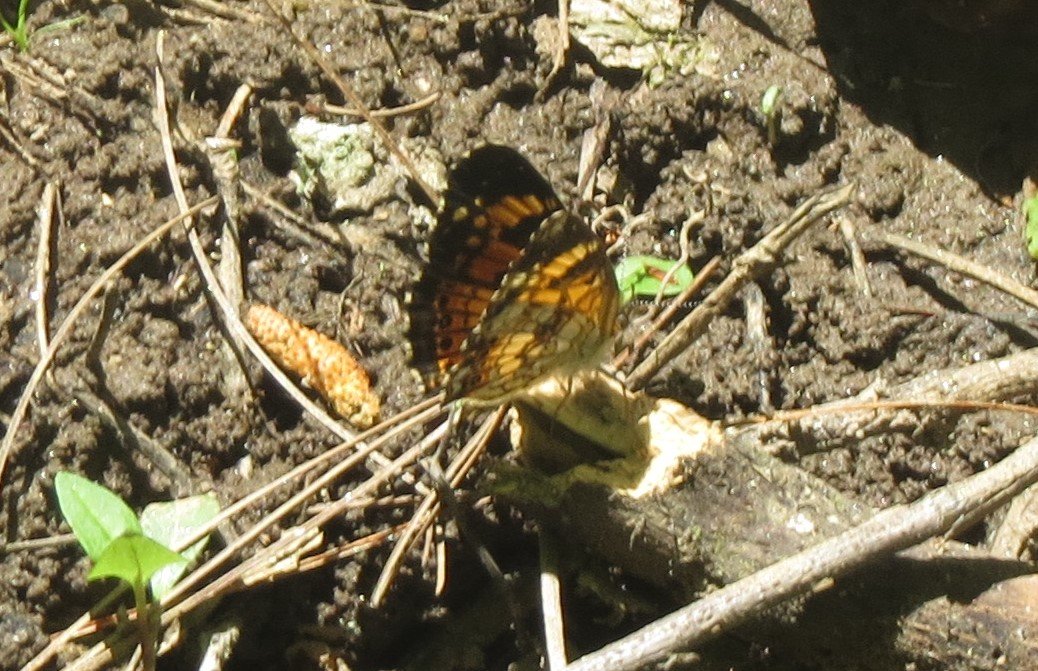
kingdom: Animalia
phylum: Arthropoda
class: Insecta
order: Lepidoptera
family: Nymphalidae
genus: Phyciodes
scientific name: Phyciodes tharos
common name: Pearl Crescent
